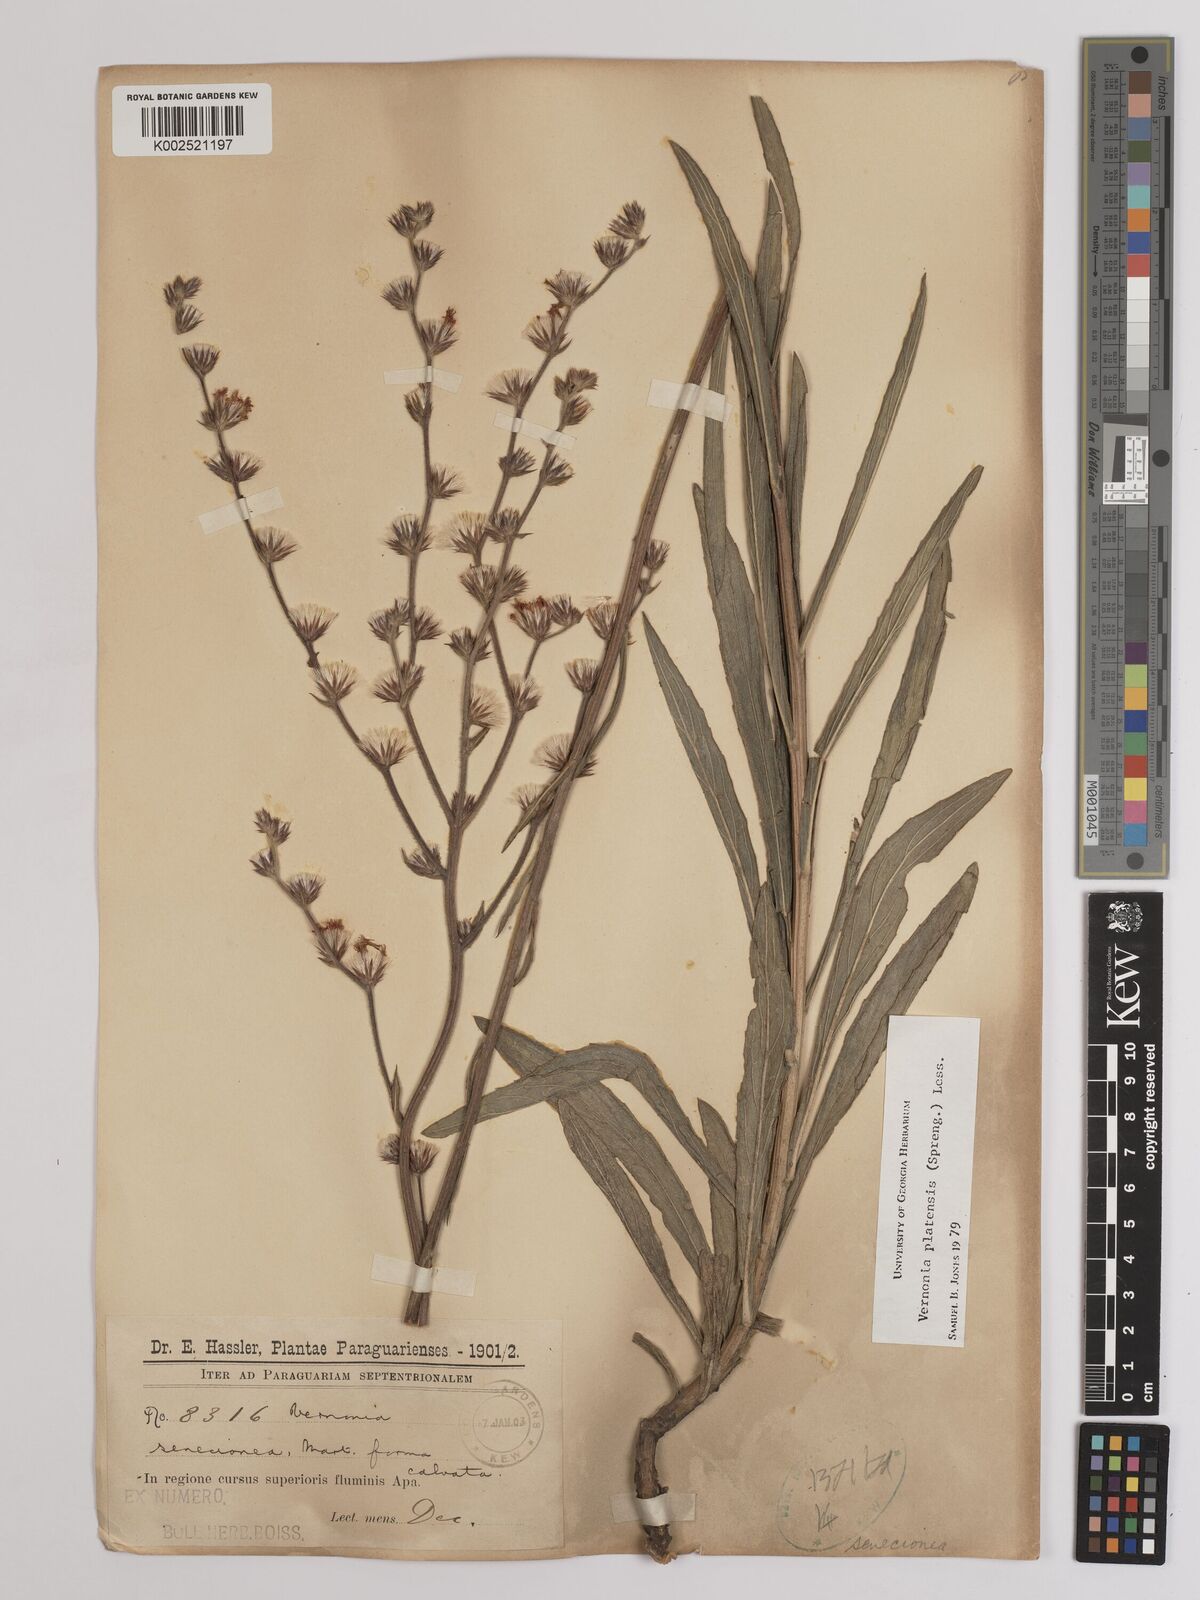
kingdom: Plantae
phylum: Tracheophyta
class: Magnoliopsida
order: Asterales
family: Asteraceae
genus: Chrysolaena
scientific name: Chrysolaena platensis
